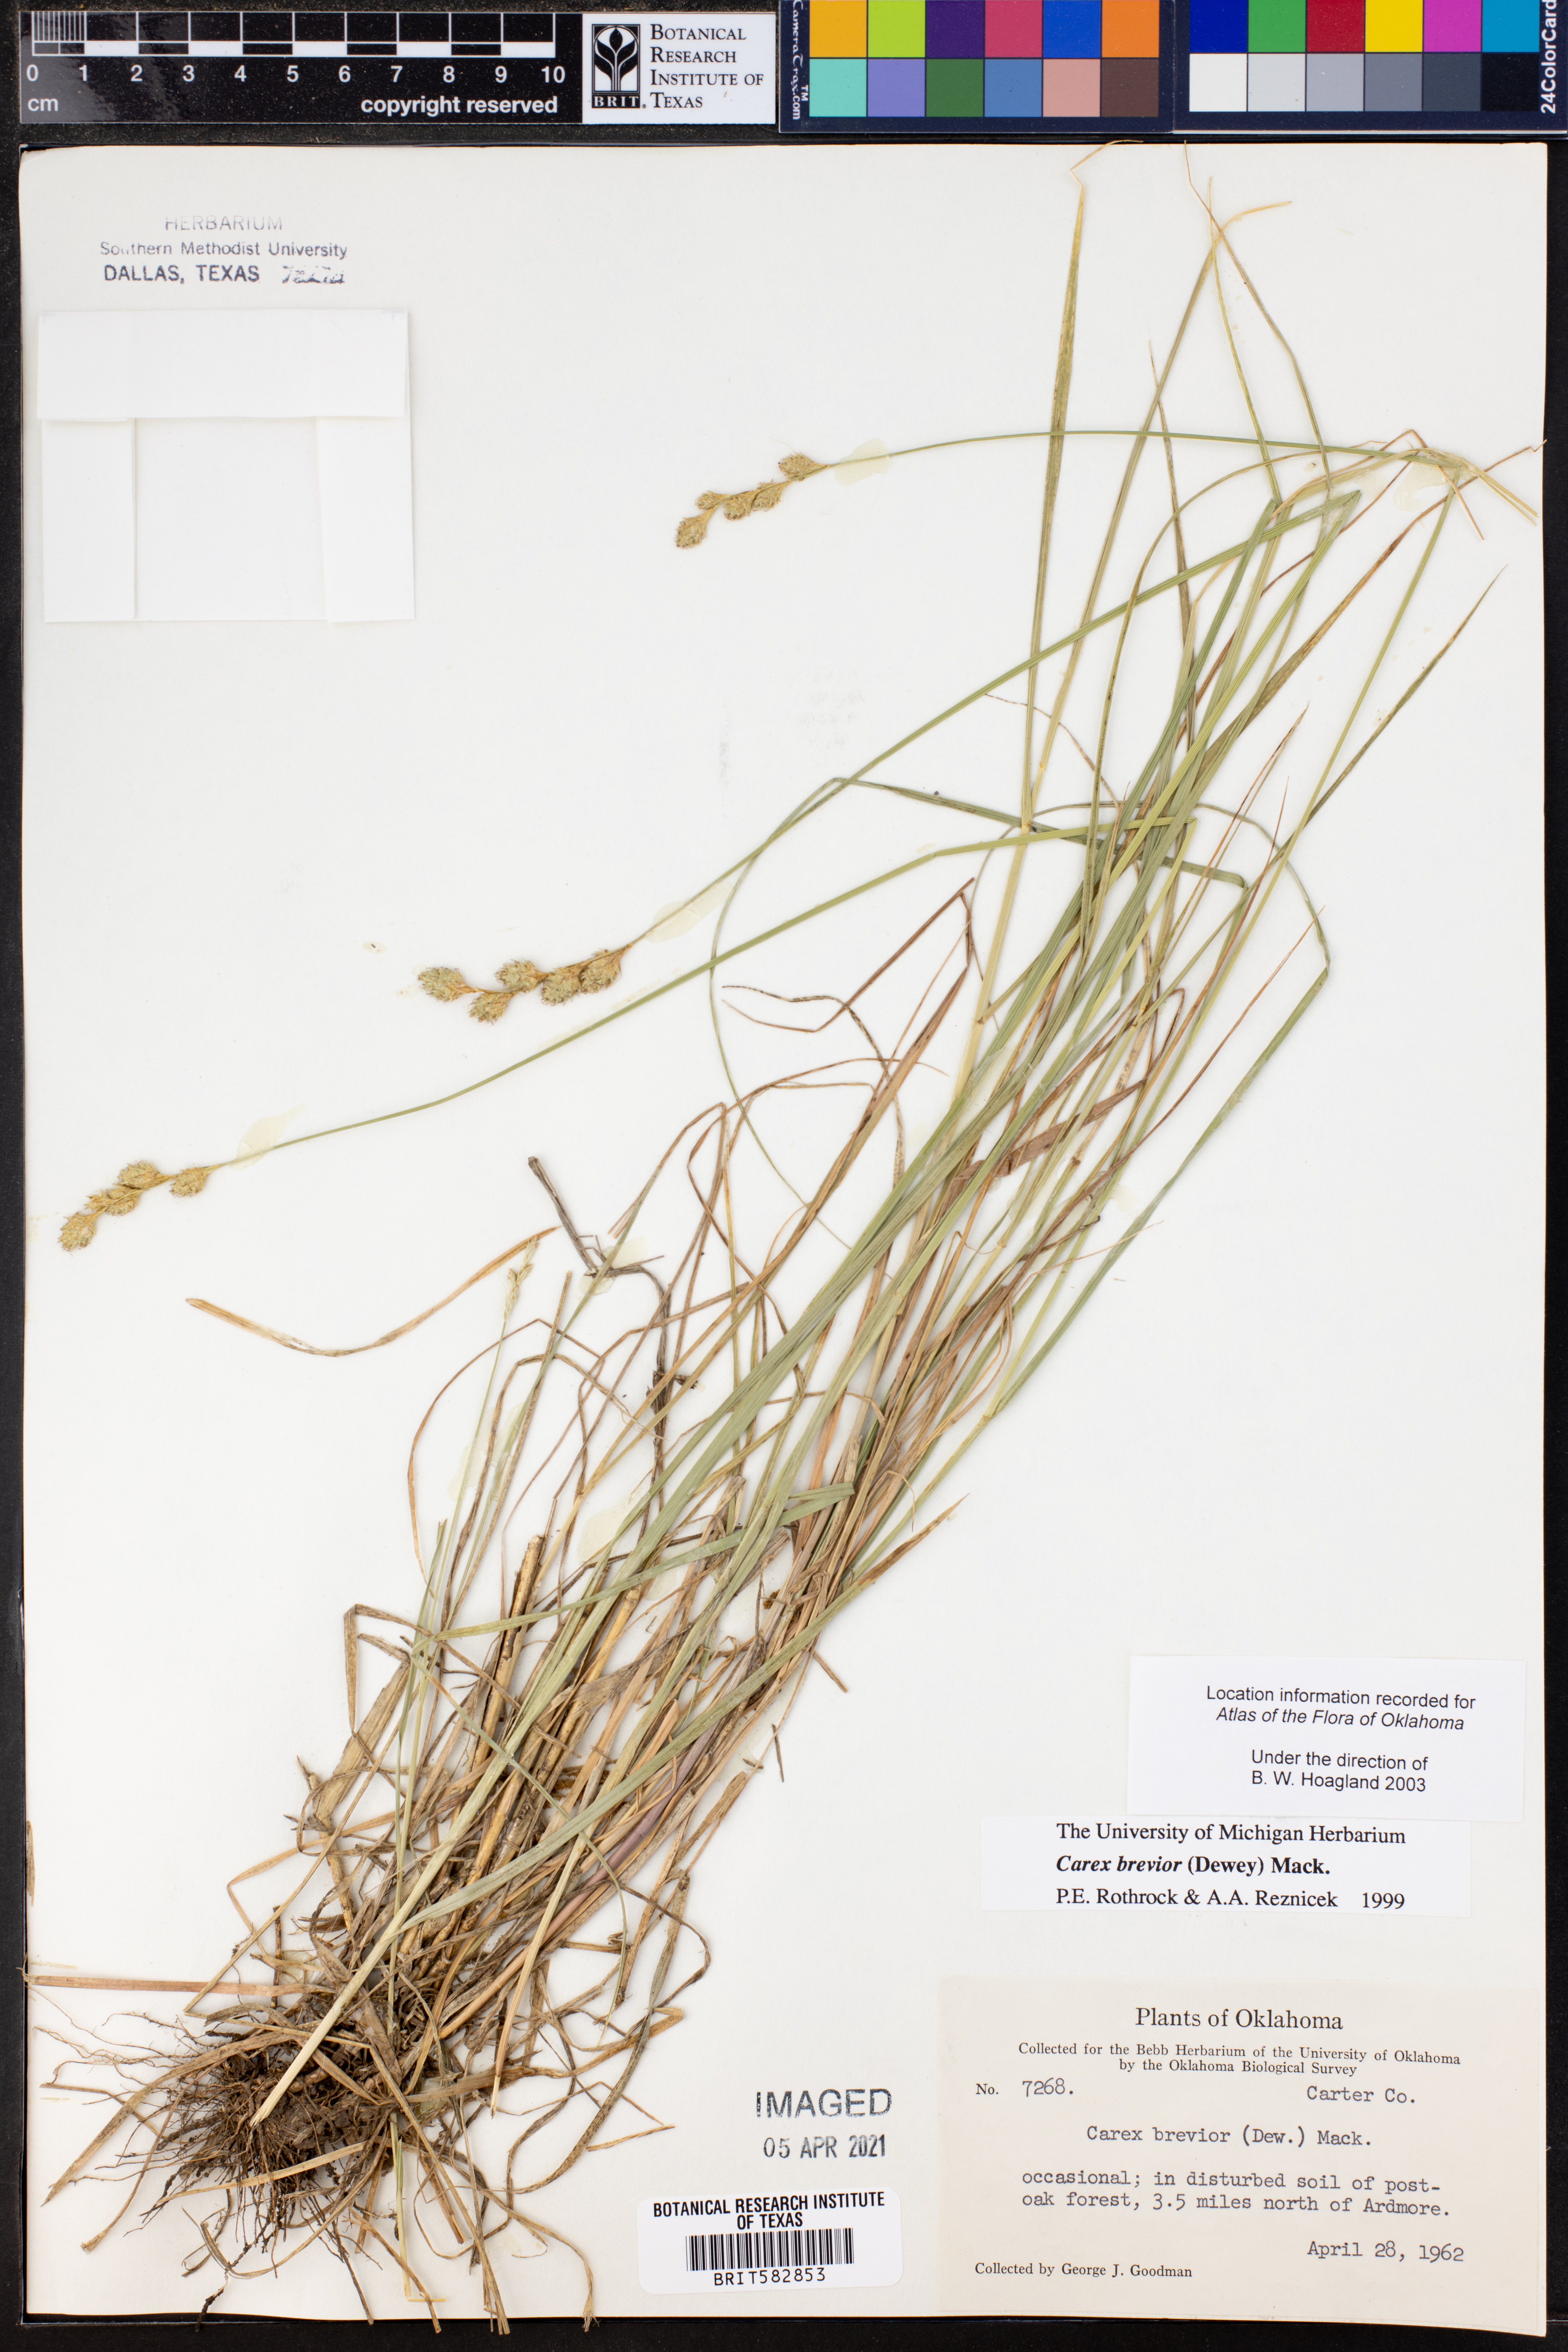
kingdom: Plantae
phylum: Tracheophyta
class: Liliopsida
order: Poales
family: Cyperaceae
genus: Carex
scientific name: Carex brevior
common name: Brevior sedge
